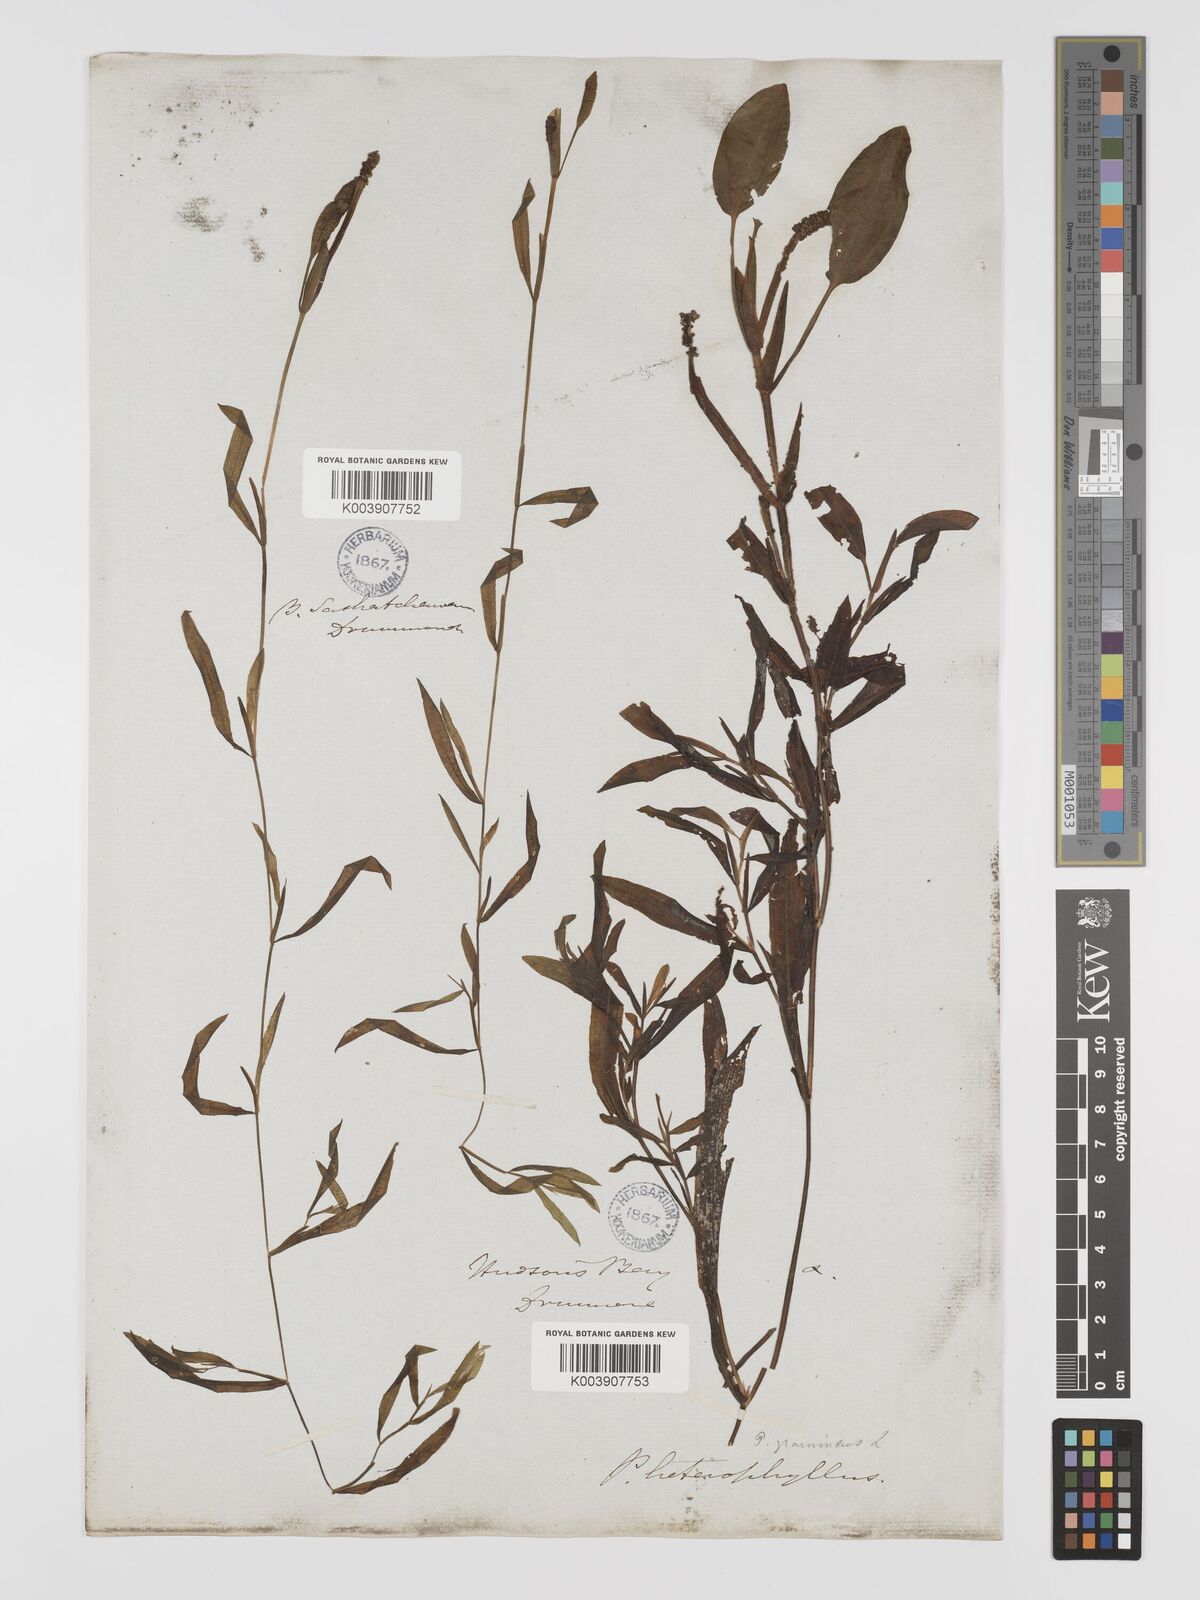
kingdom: Plantae
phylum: Tracheophyta
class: Liliopsida
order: Alismatales
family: Potamogetonaceae
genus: Potamogeton
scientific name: Potamogeton gramineus
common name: Various-leaved pondweed
